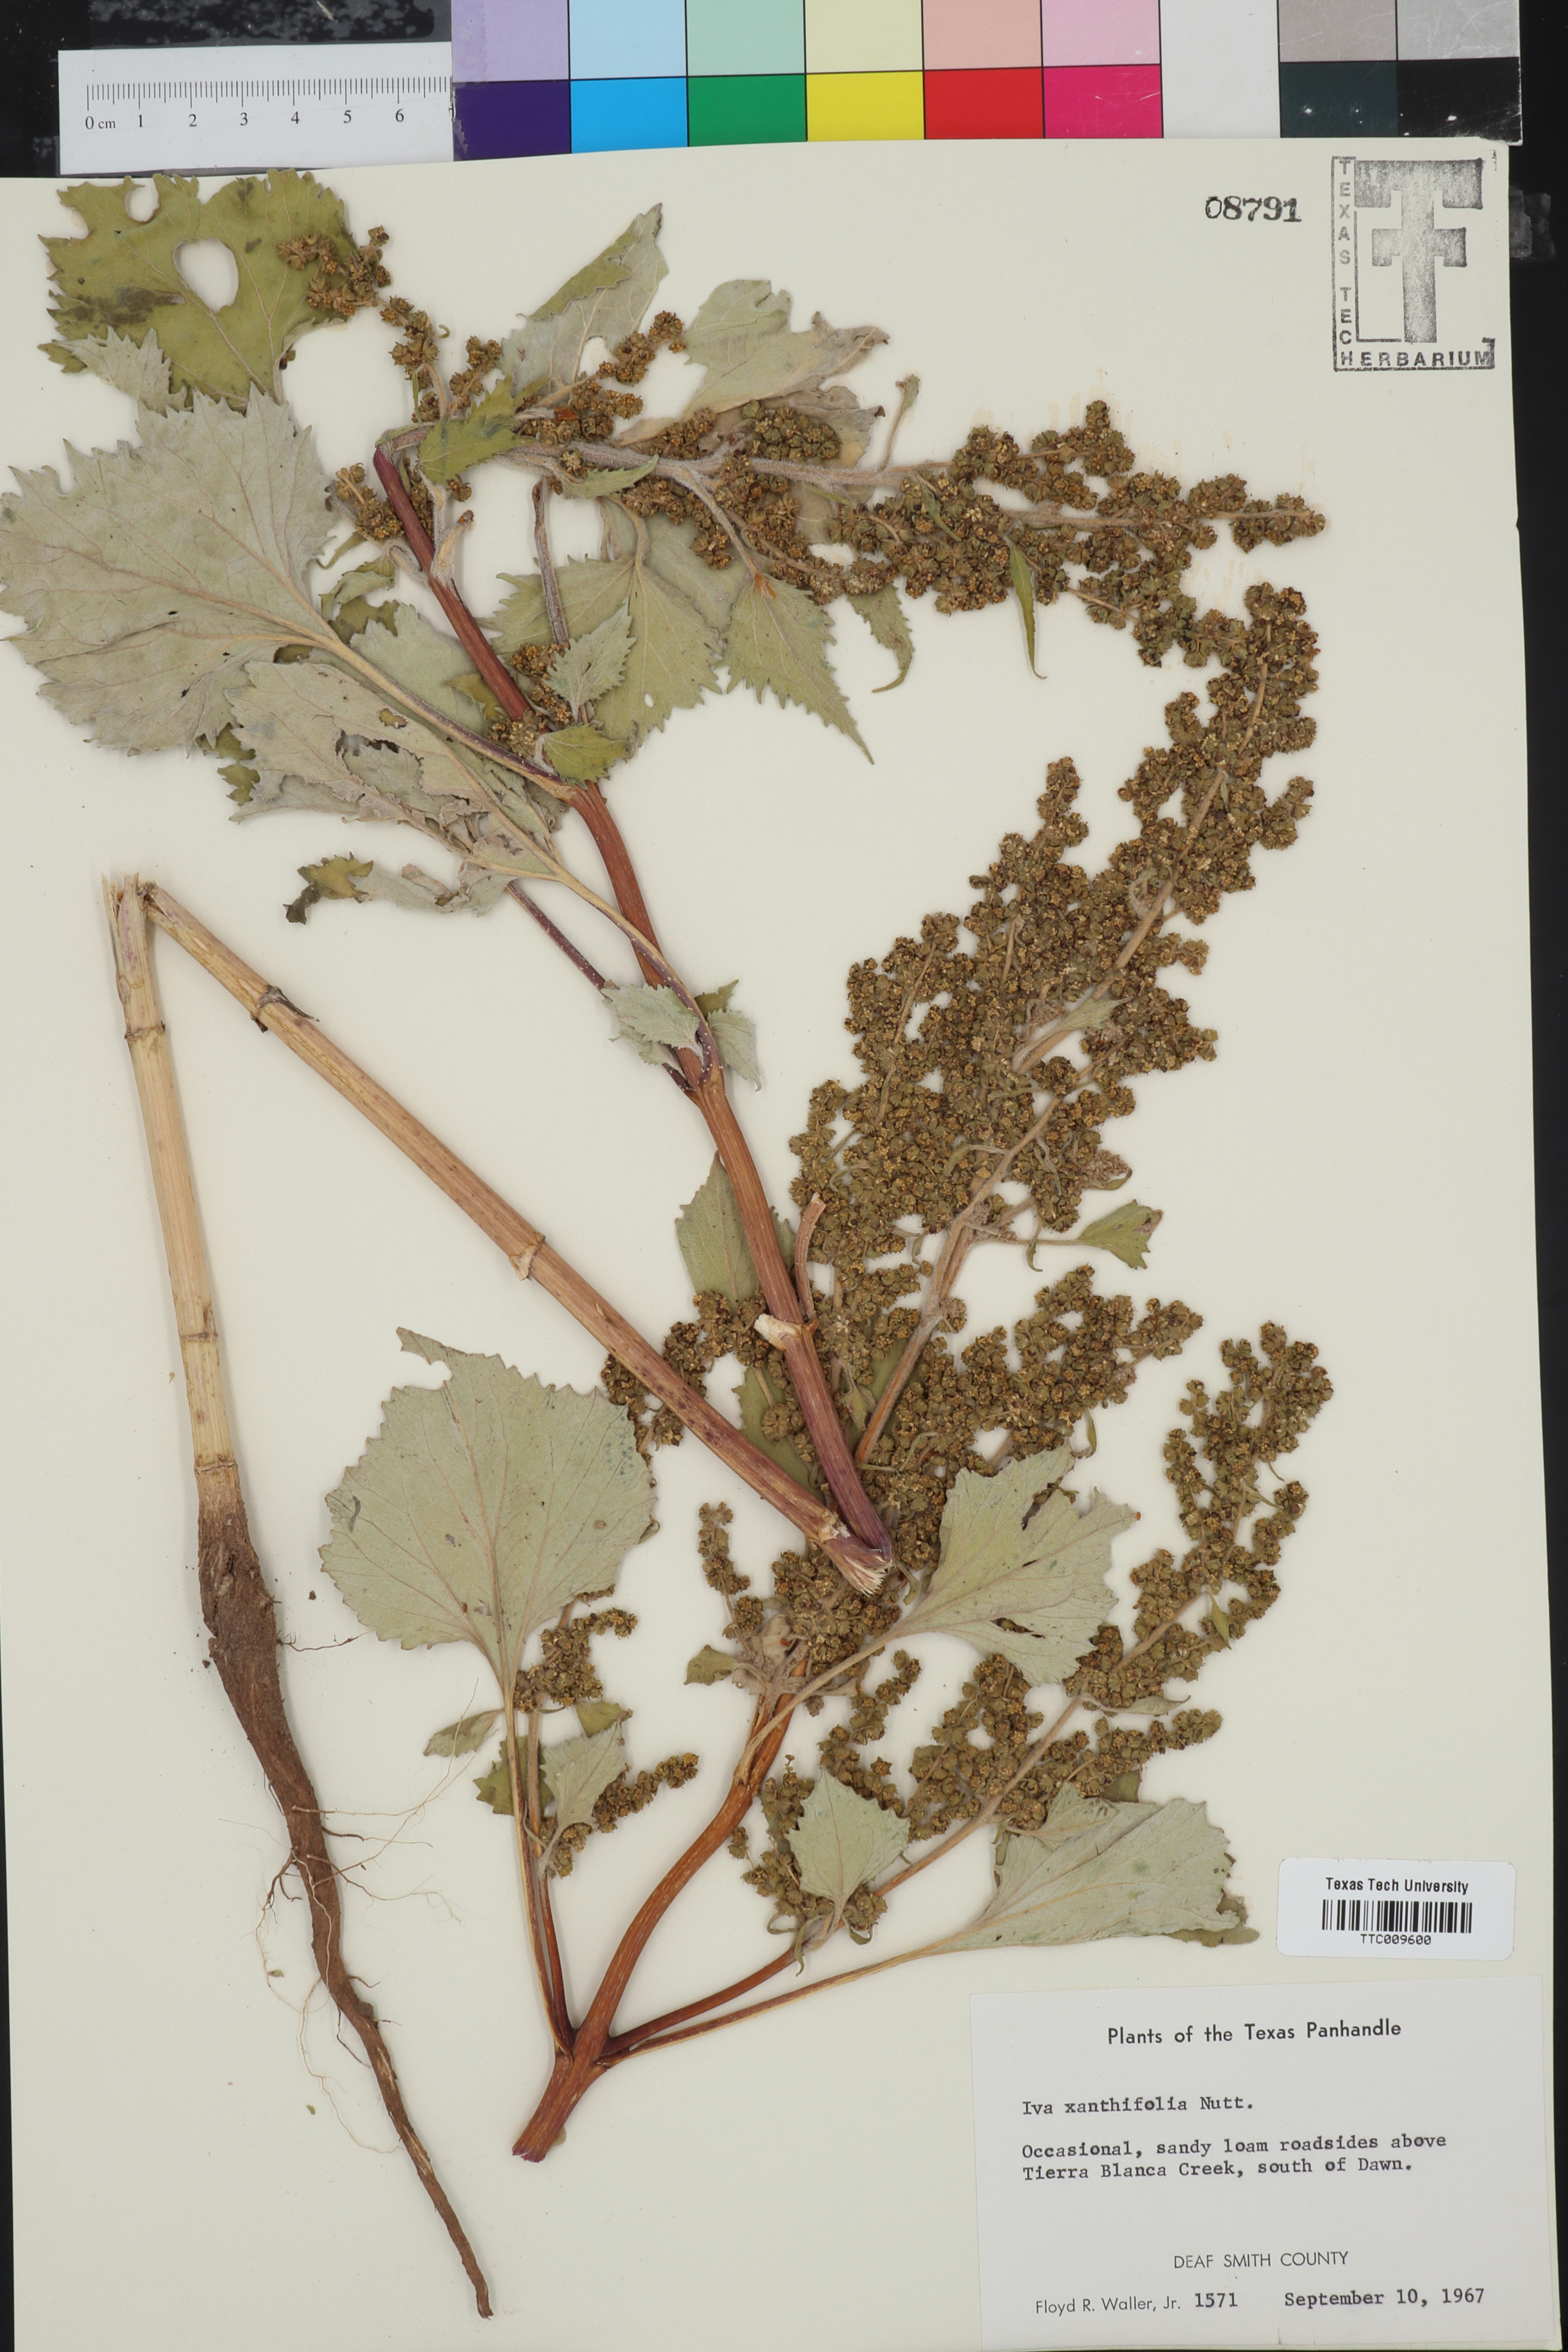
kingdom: Plantae
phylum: Tracheophyta
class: Magnoliopsida
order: Asterales
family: Asteraceae
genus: Cyclachaena
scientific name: Cyclachaena xanthiifolia
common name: Giant sumpweed
